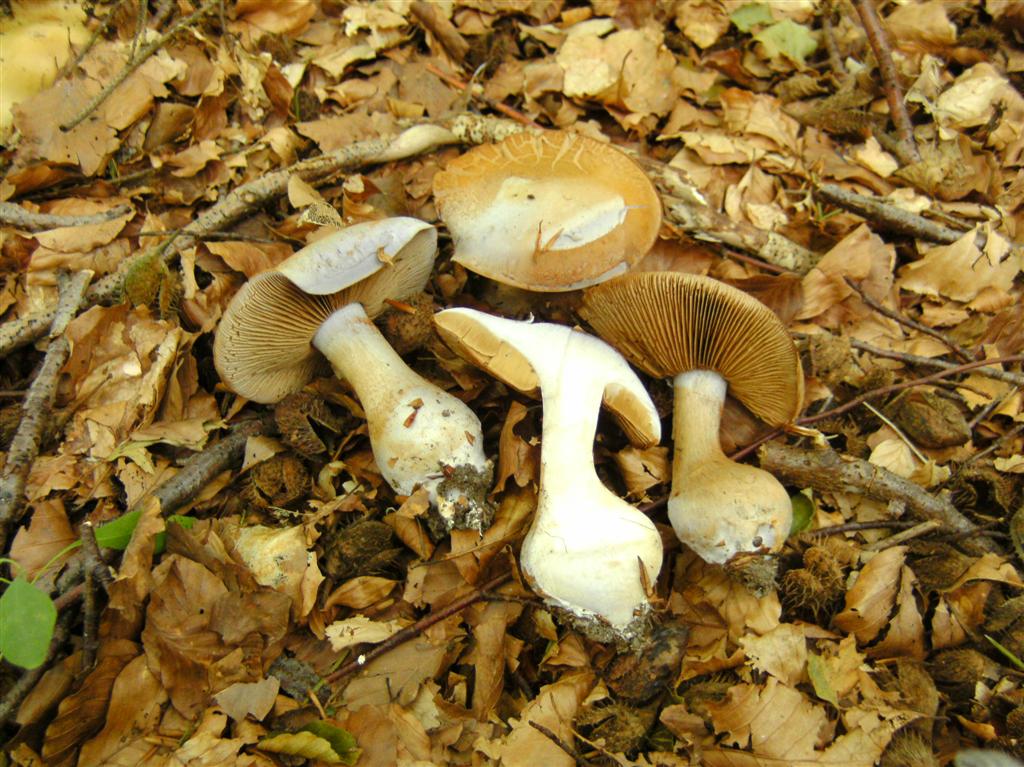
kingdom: Fungi
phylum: Basidiomycota
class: Agaricomycetes
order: Agaricales
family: Cortinariaceae
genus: Cortinarius
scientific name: Cortinarius largus
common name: violetrandet slørhat
